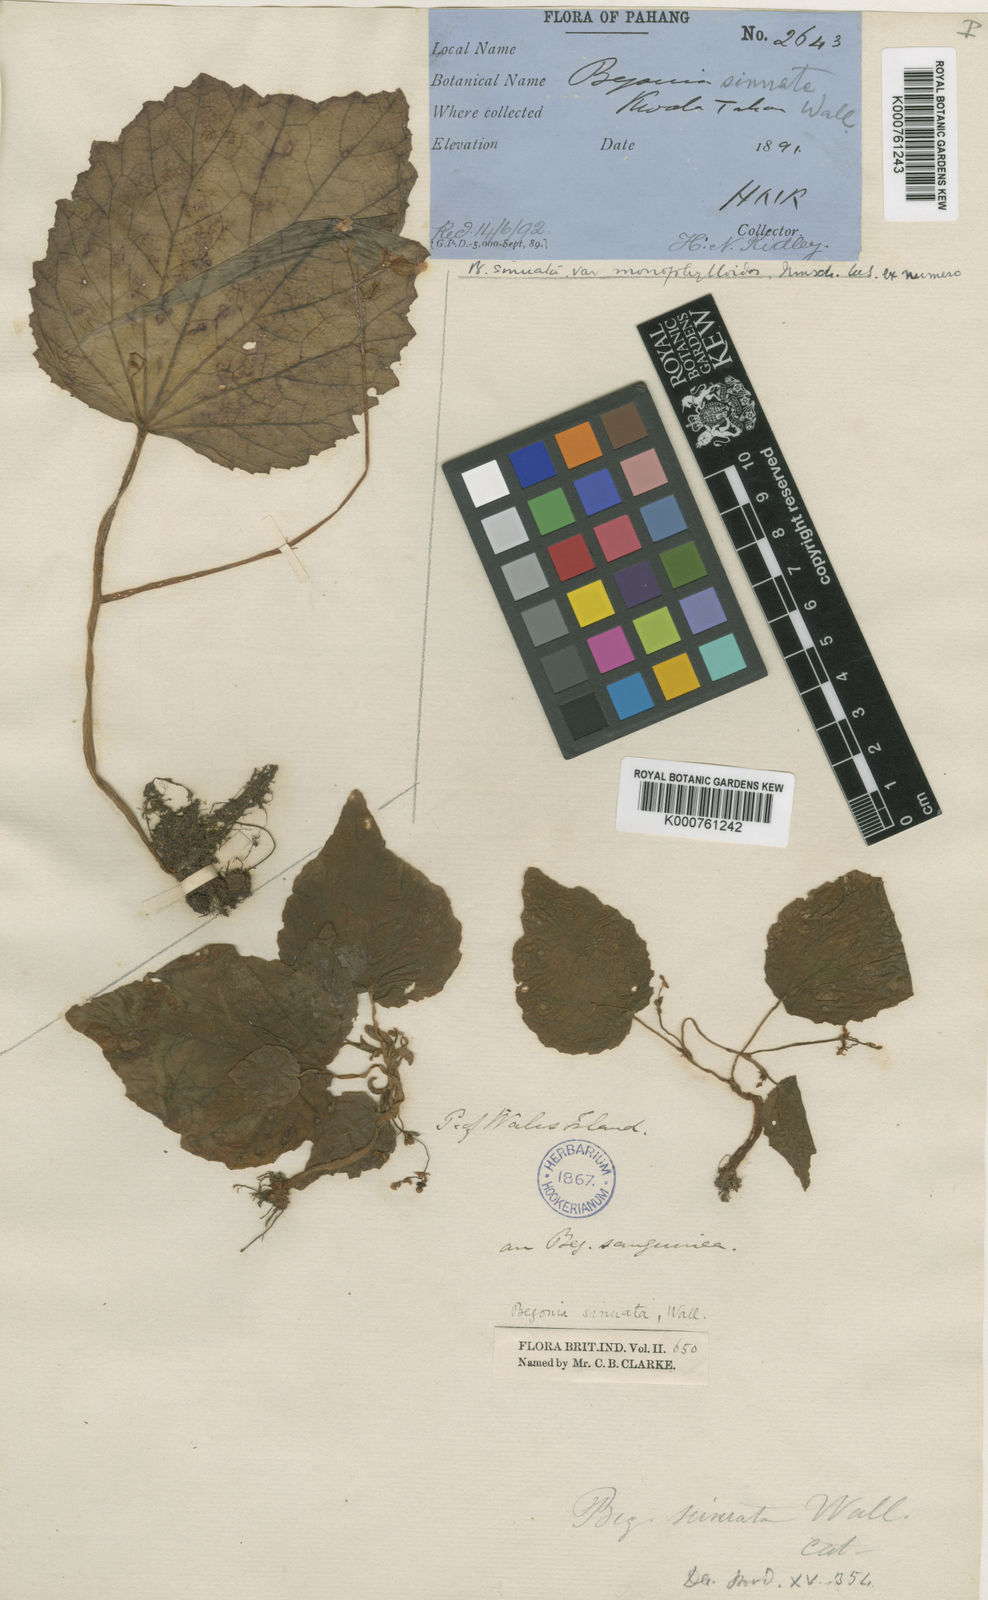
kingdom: Plantae
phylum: Tracheophyta
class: Magnoliopsida
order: Cucurbitales
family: Begoniaceae
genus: Begonia
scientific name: Begonia
